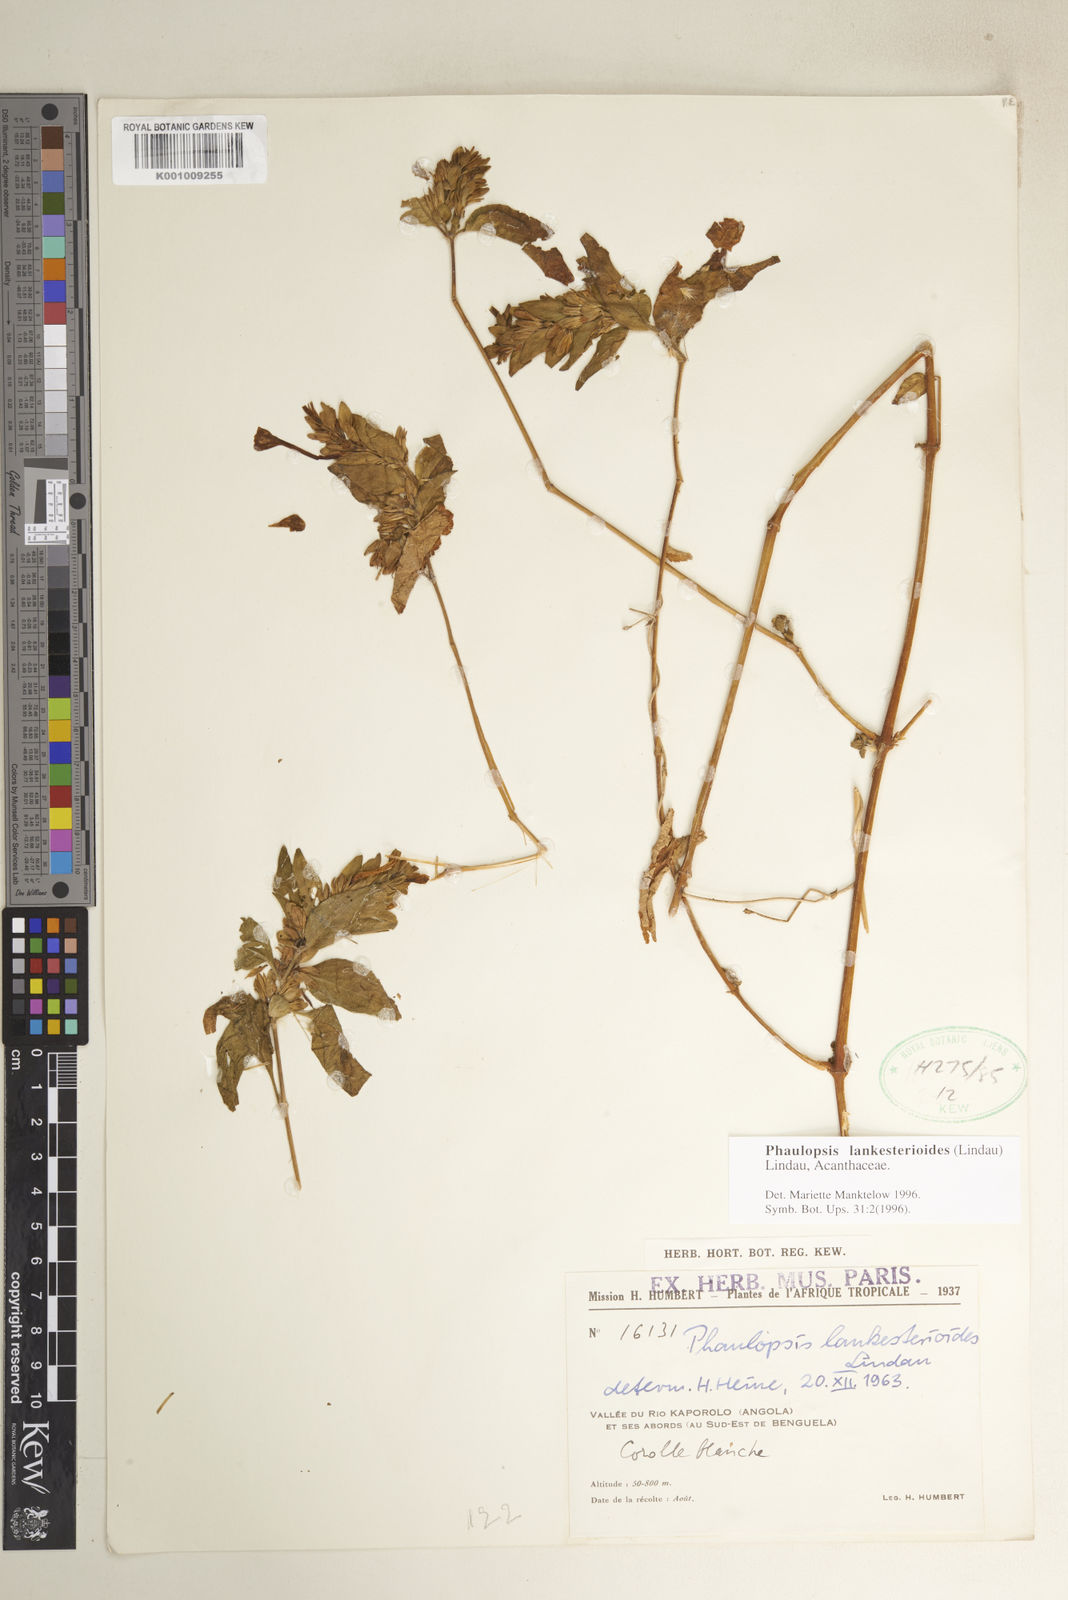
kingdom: Plantae
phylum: Tracheophyta
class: Magnoliopsida
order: Lamiales
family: Acanthaceae
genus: Phaulopsis
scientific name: Phaulopsis lankesterioides
